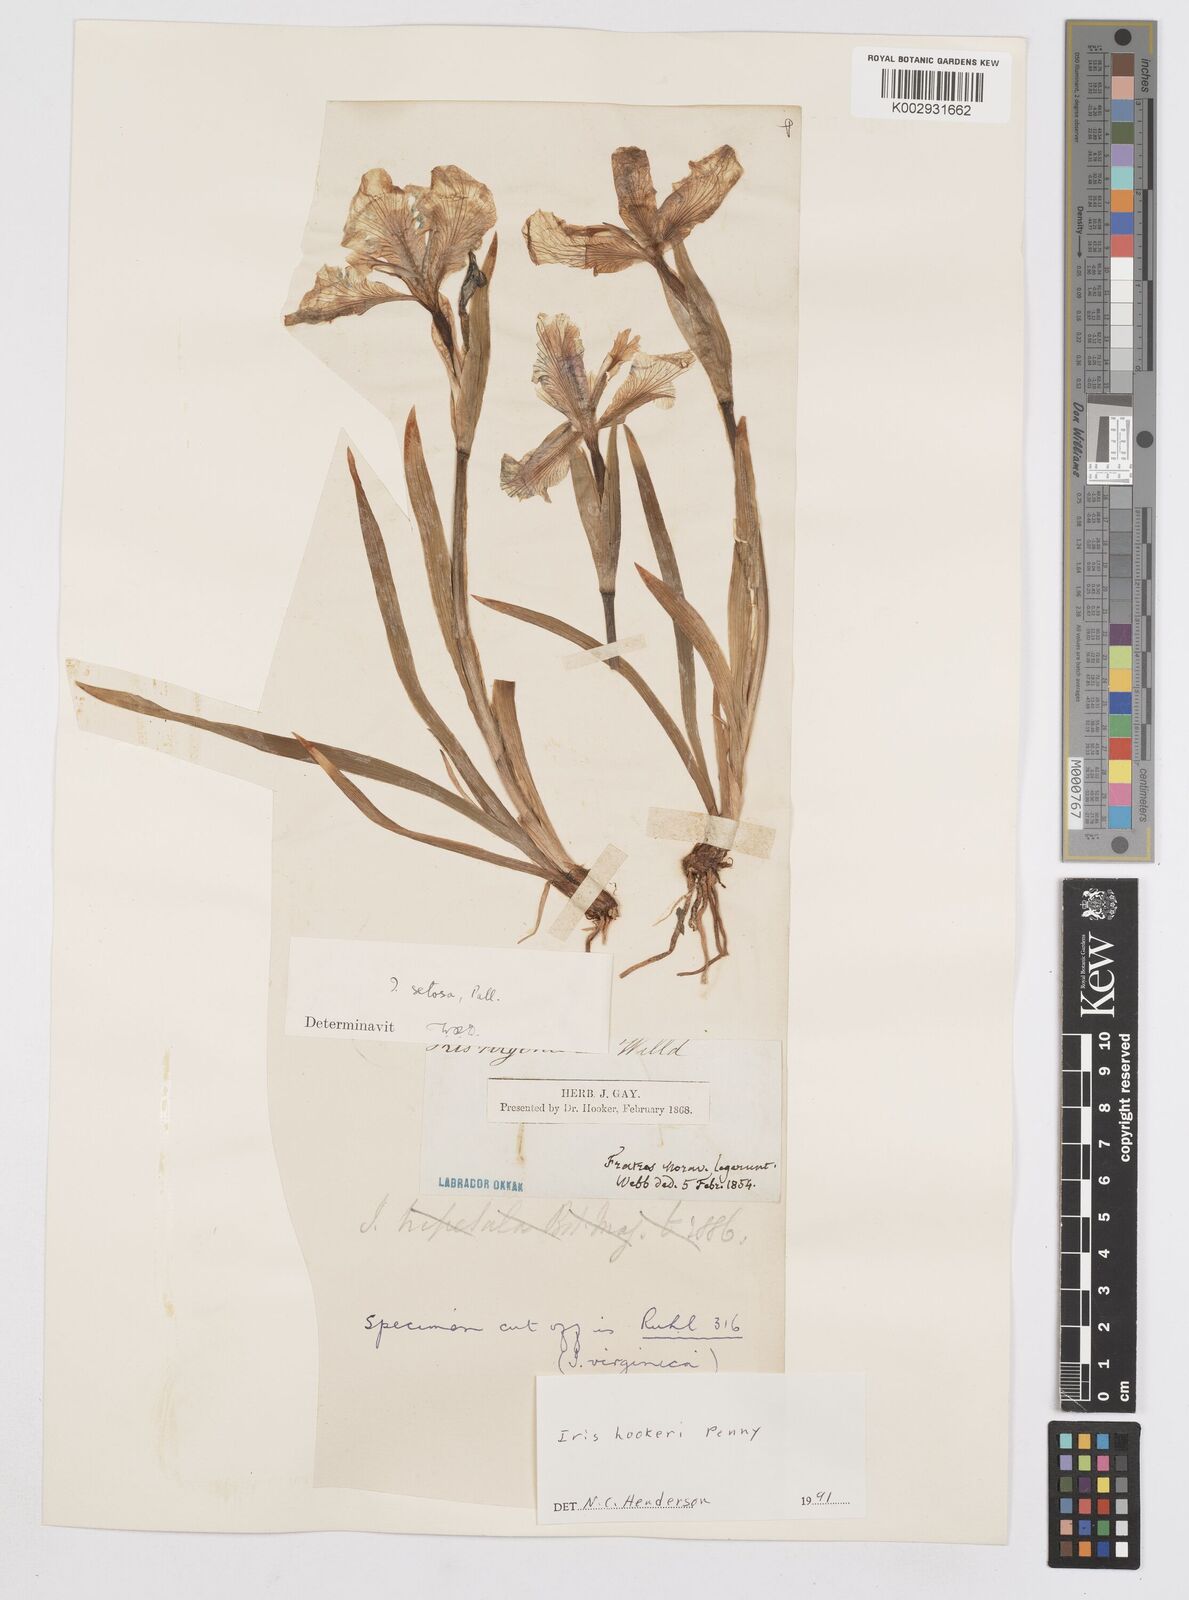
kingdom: Plantae
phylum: Tracheophyta
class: Liliopsida
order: Asparagales
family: Iridaceae
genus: Iris
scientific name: Iris setosa
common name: Arctic blue flag
